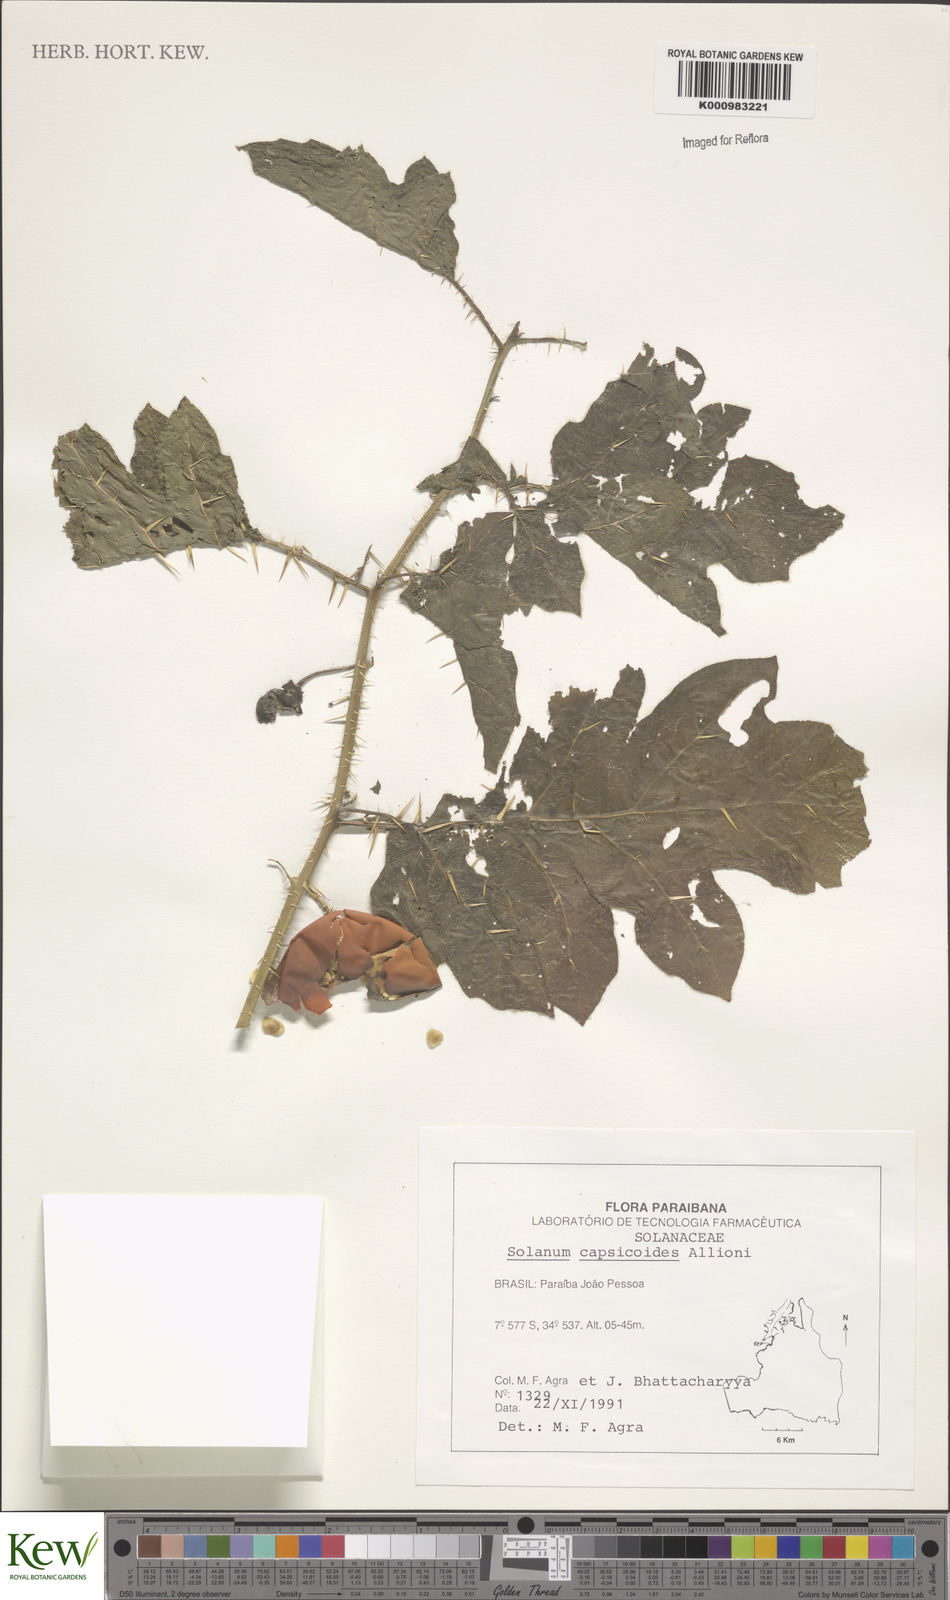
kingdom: Plantae
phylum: Tracheophyta
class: Magnoliopsida
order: Solanales
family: Solanaceae
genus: Solanum
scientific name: Solanum capsicoides
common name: Cockroach berry
